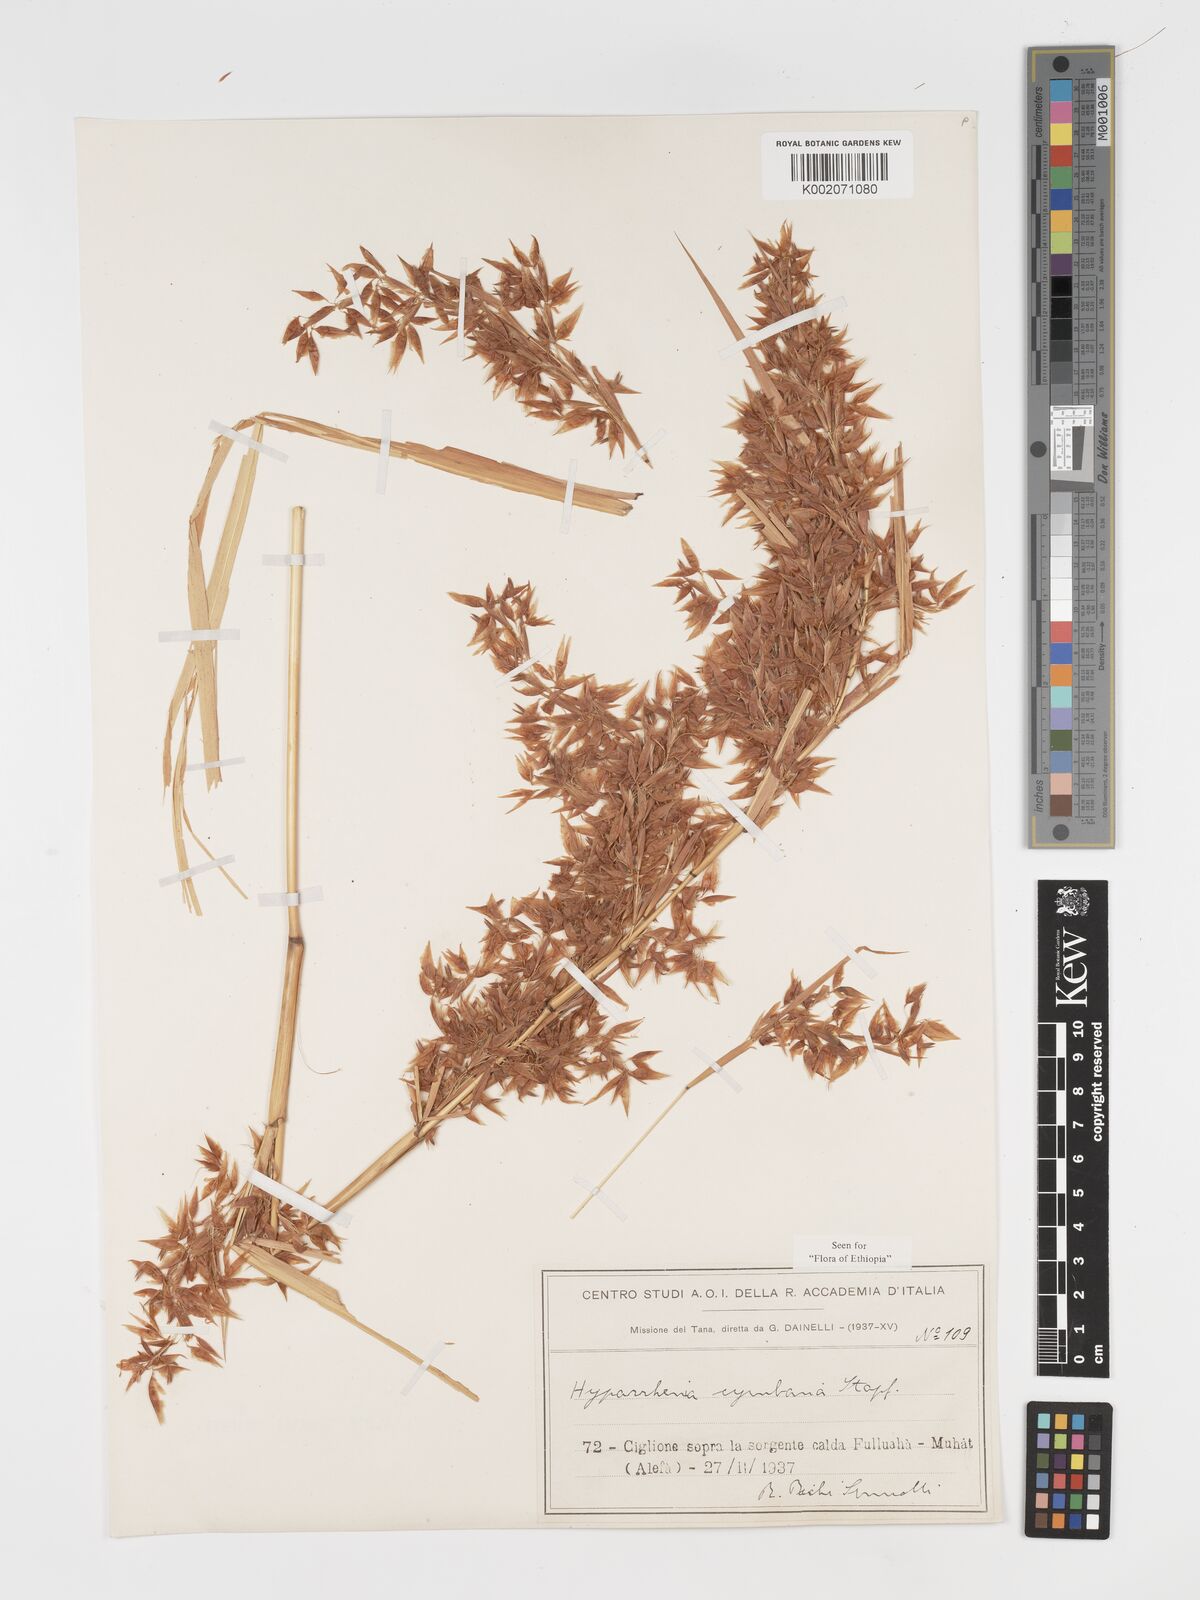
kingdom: Plantae
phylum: Tracheophyta
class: Liliopsida
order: Poales
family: Poaceae
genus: Hyparrhenia
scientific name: Hyparrhenia cymbaria
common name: Boat thatching grass
